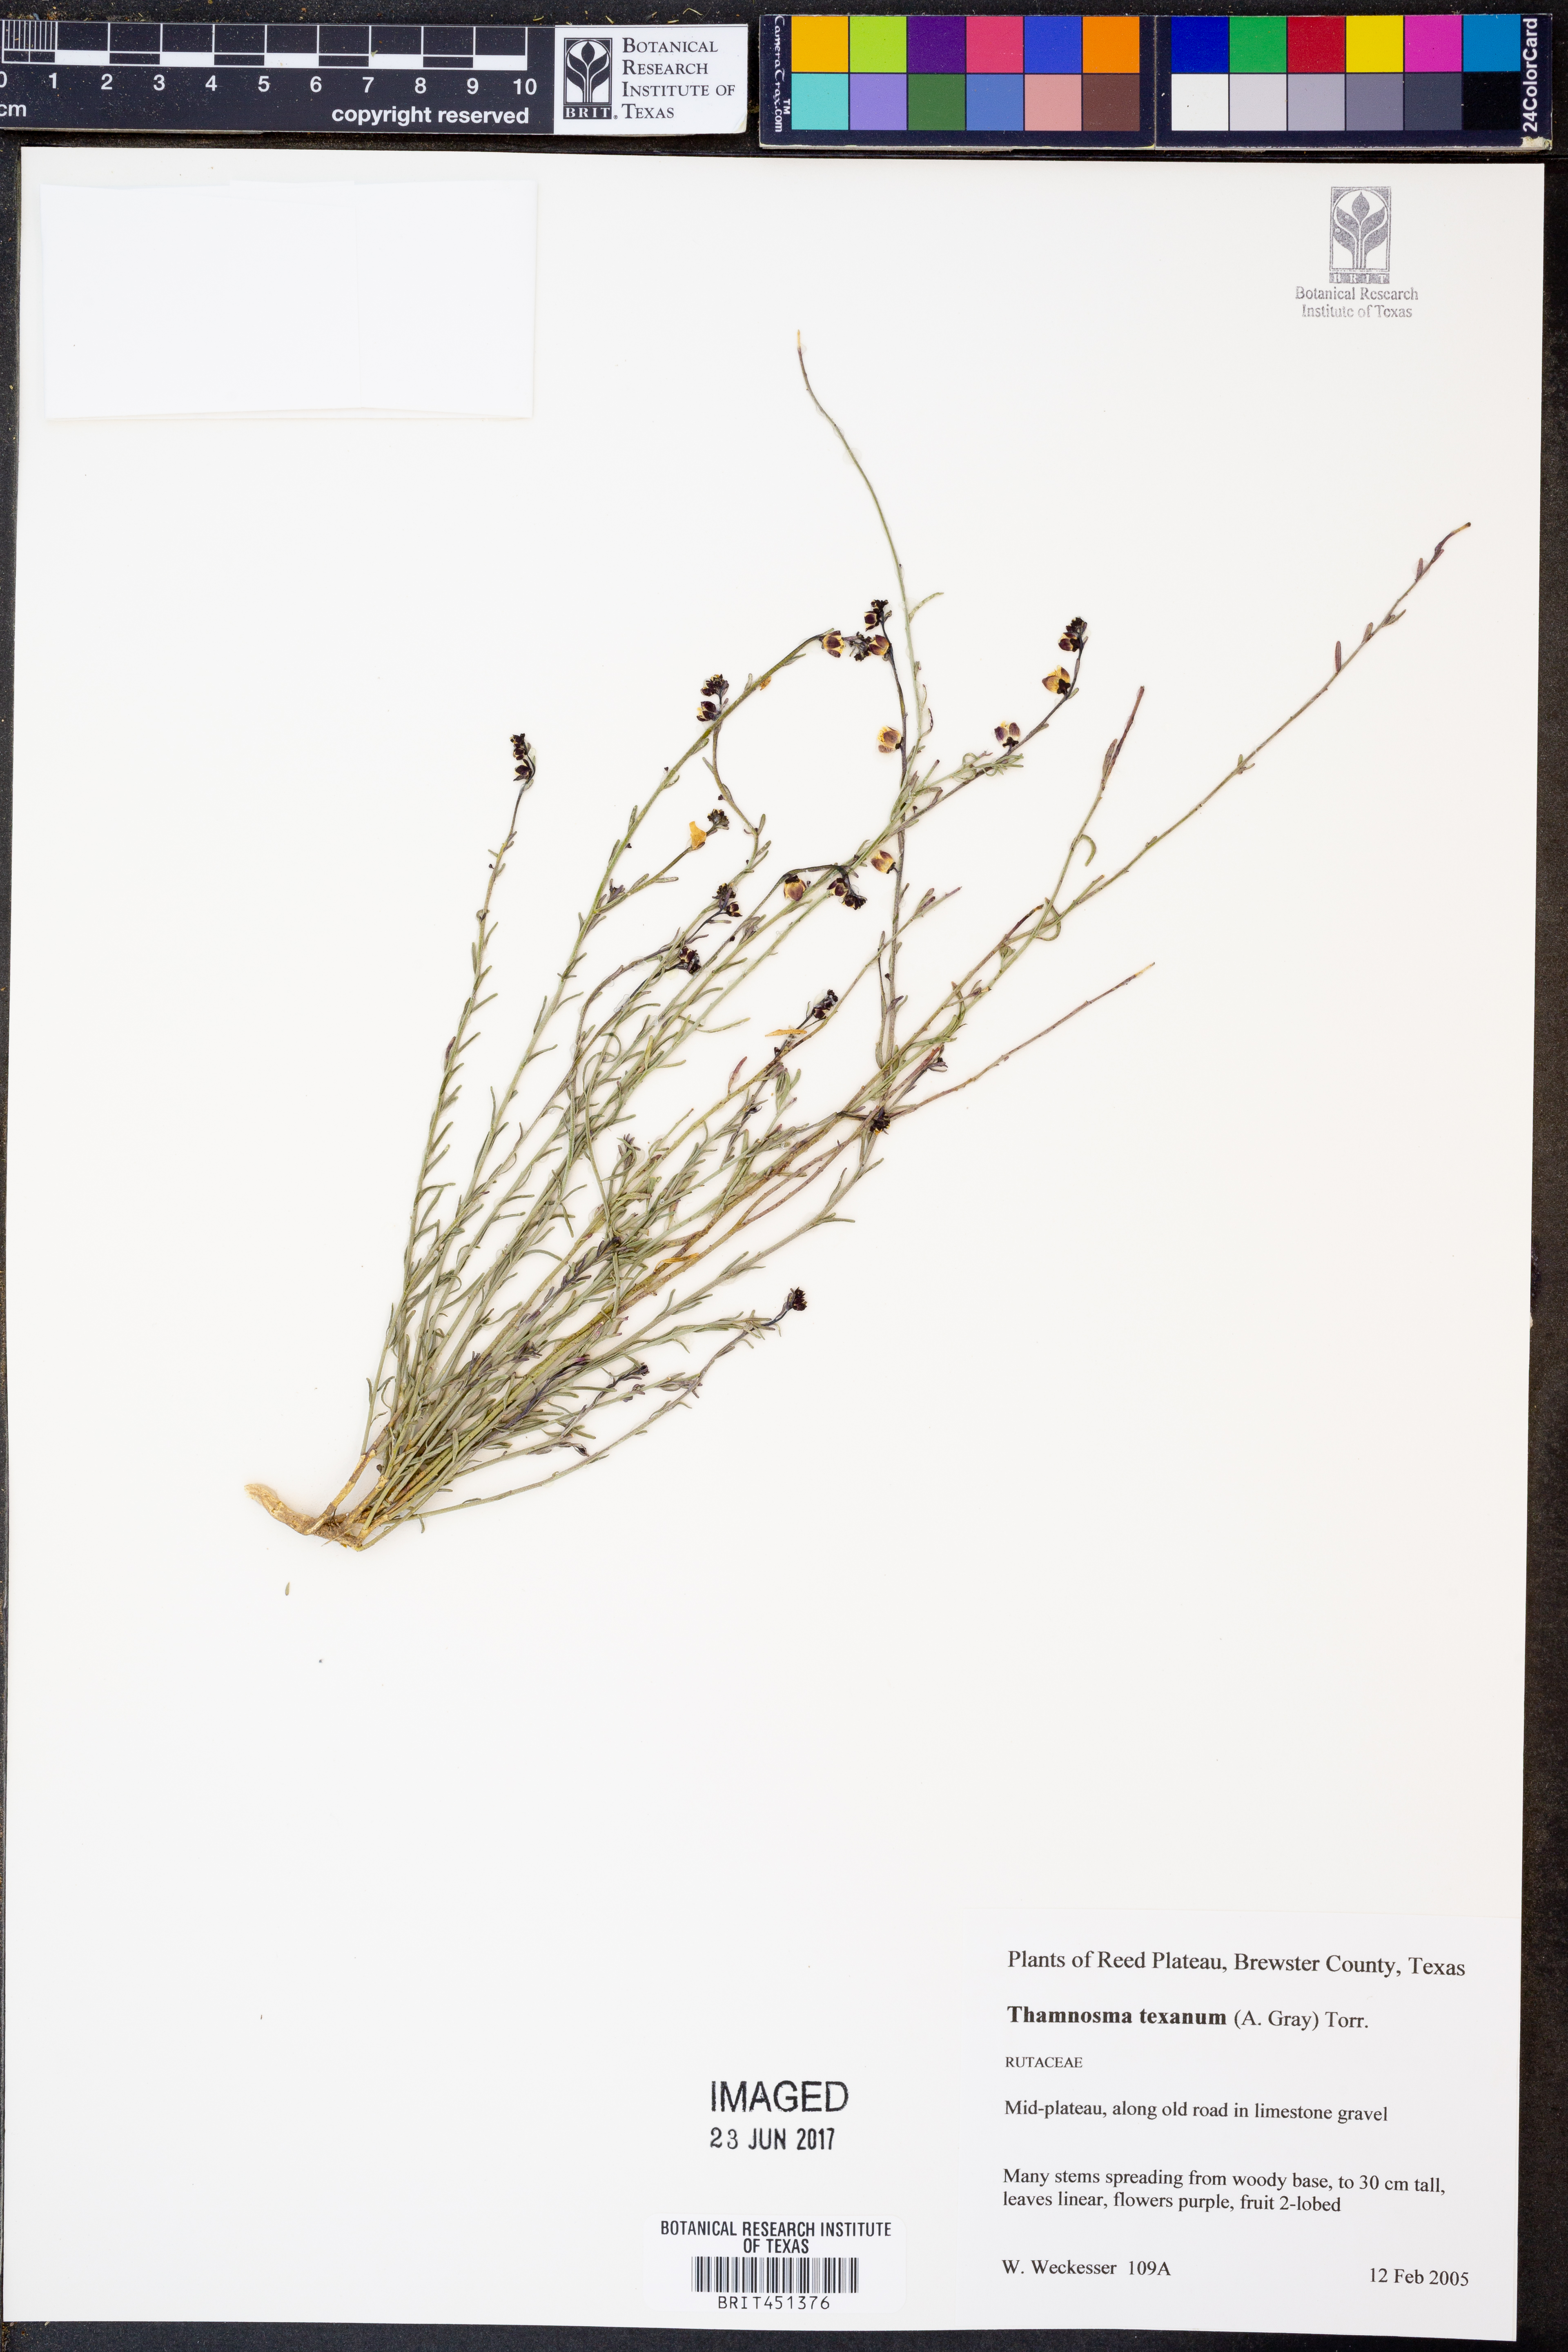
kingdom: Plantae
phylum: Tracheophyta
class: Magnoliopsida
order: Sapindales
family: Rutaceae
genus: Thamnosma
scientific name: Thamnosma texana
